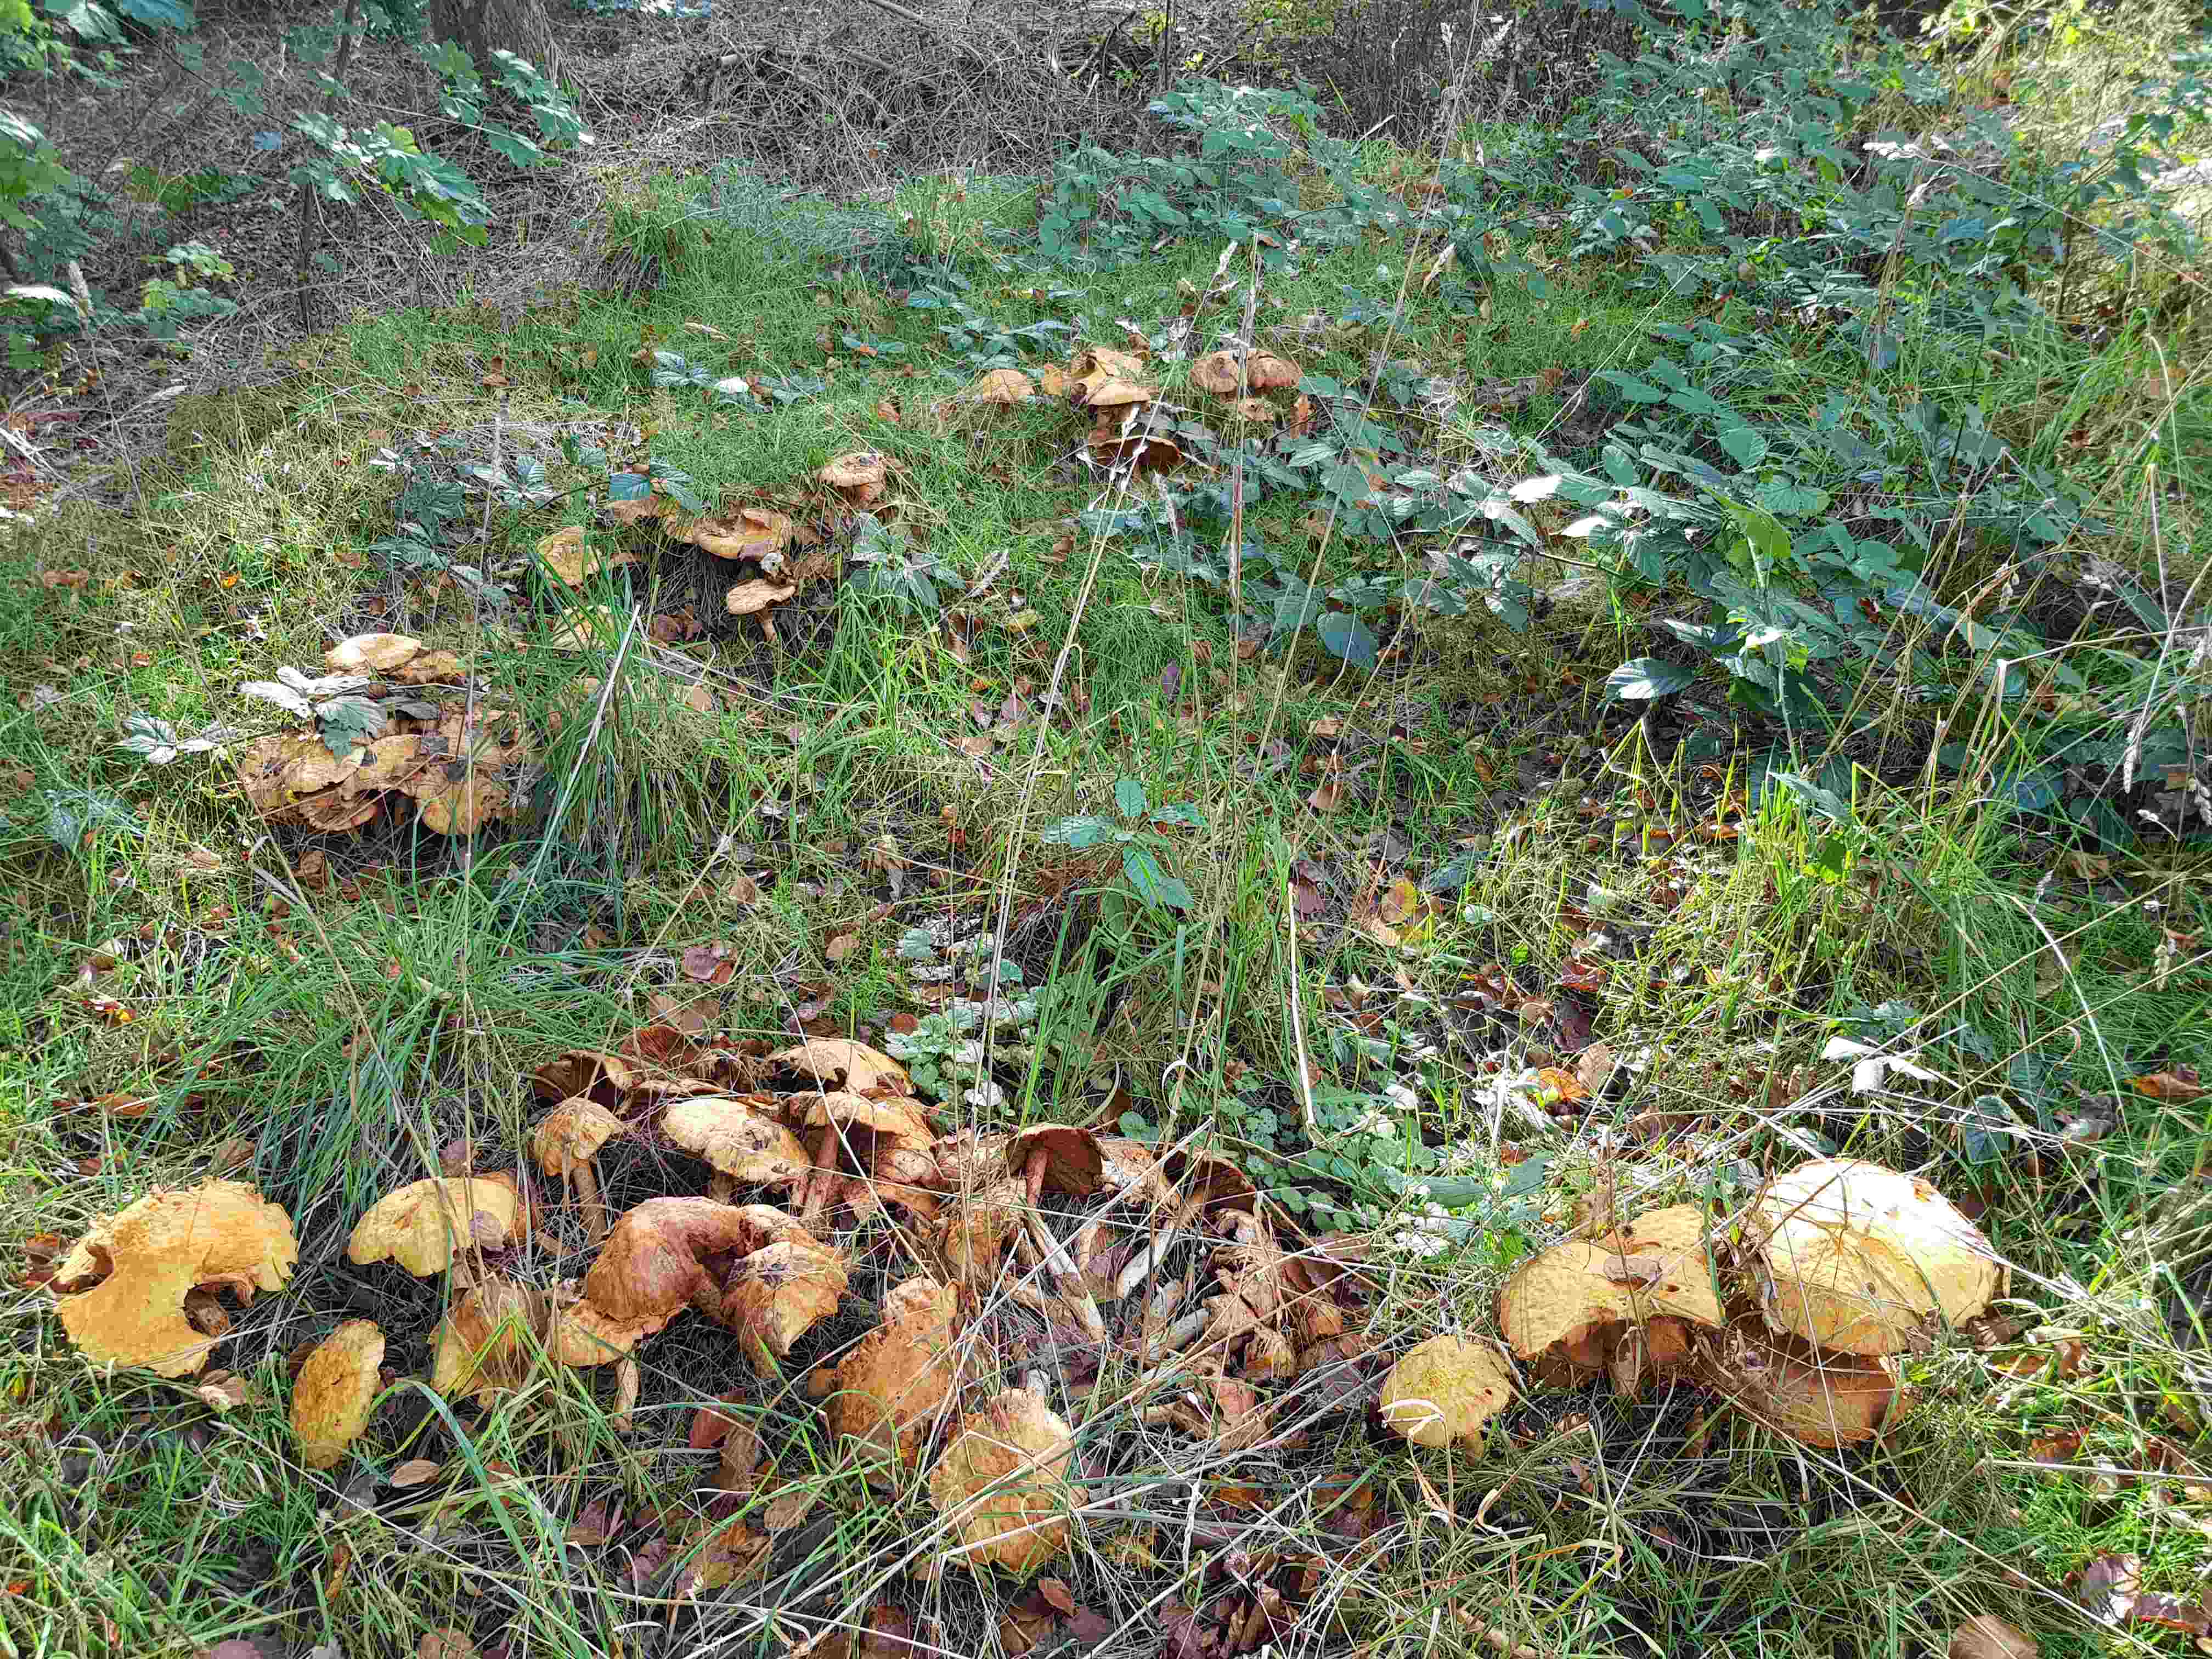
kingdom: Fungi
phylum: Basidiomycota
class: Agaricomycetes
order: Agaricales
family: Tricholomataceae
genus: Phaeolepiota
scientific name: Phaeolepiota aurea
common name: gyldenhat
